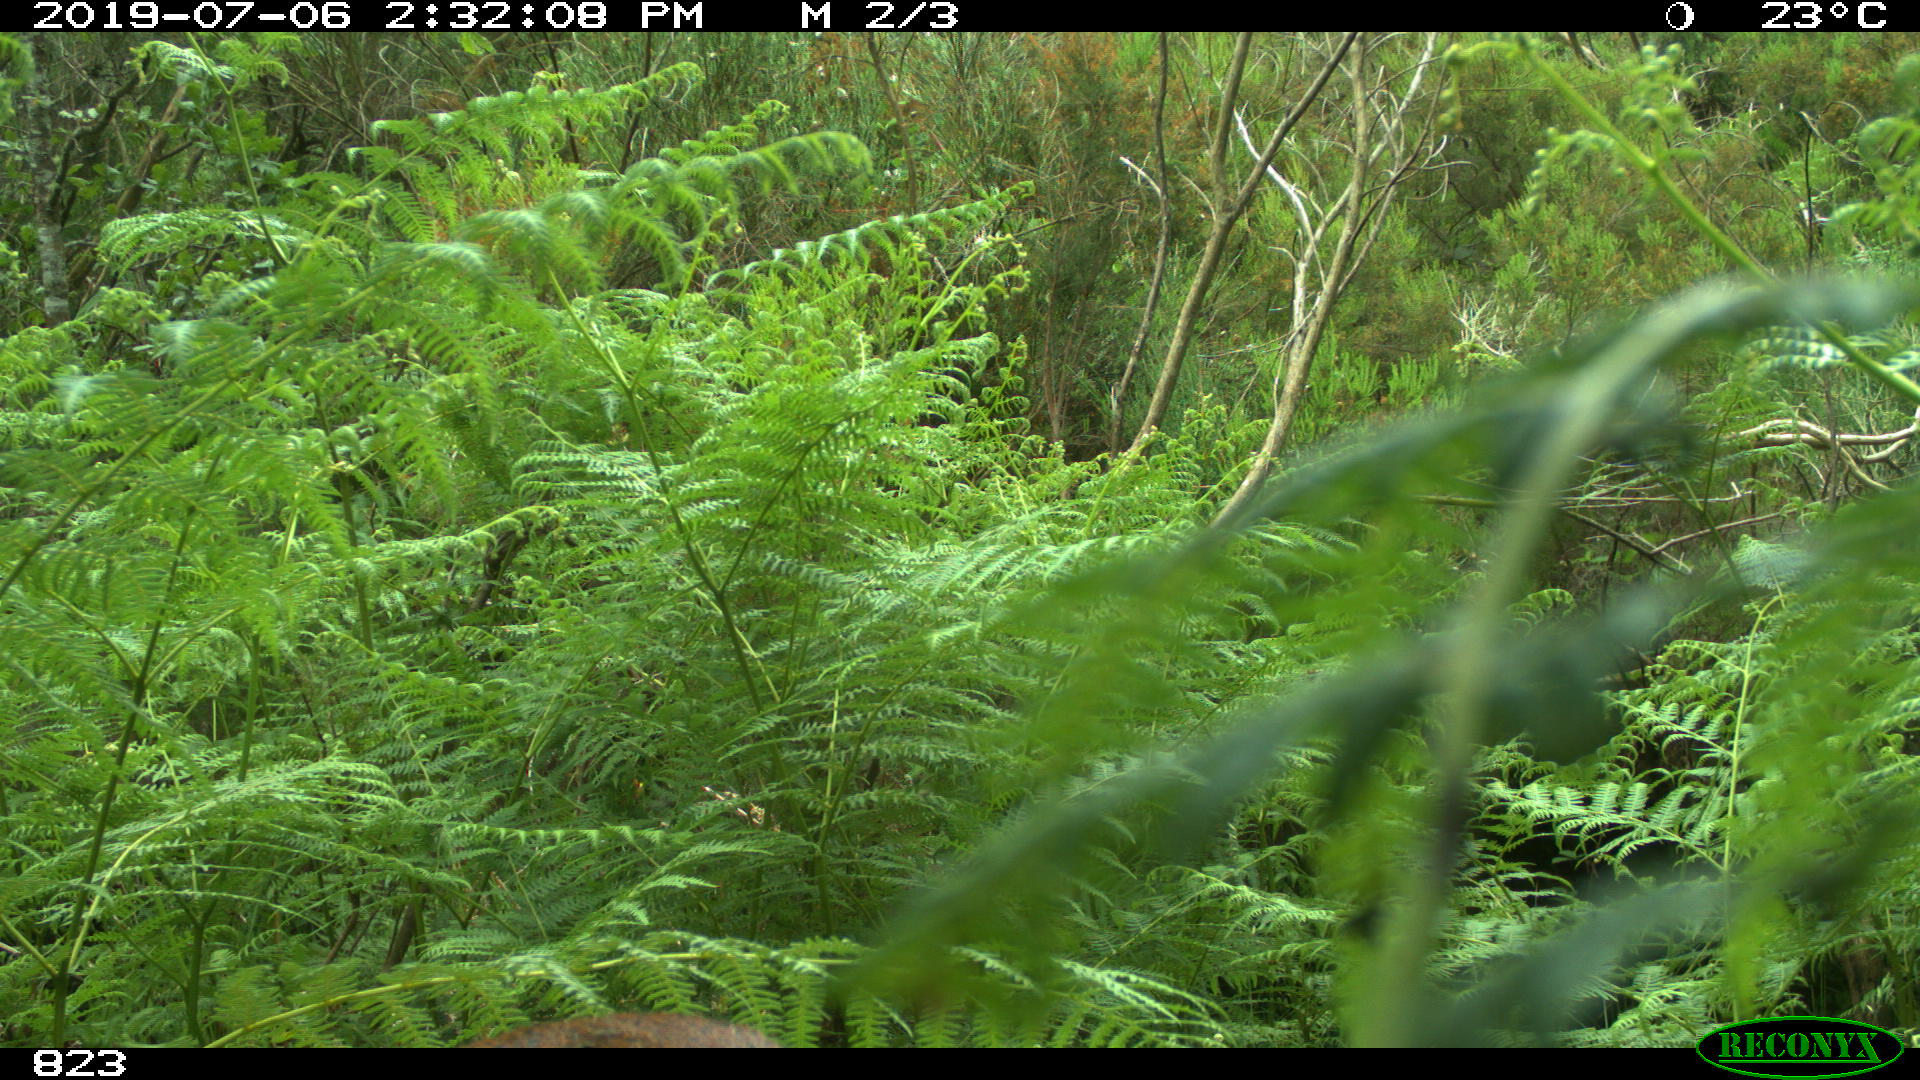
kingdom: Animalia
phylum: Chordata
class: Mammalia
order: Artiodactyla
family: Cervidae
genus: Capreolus
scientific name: Capreolus capreolus
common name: Western roe deer
